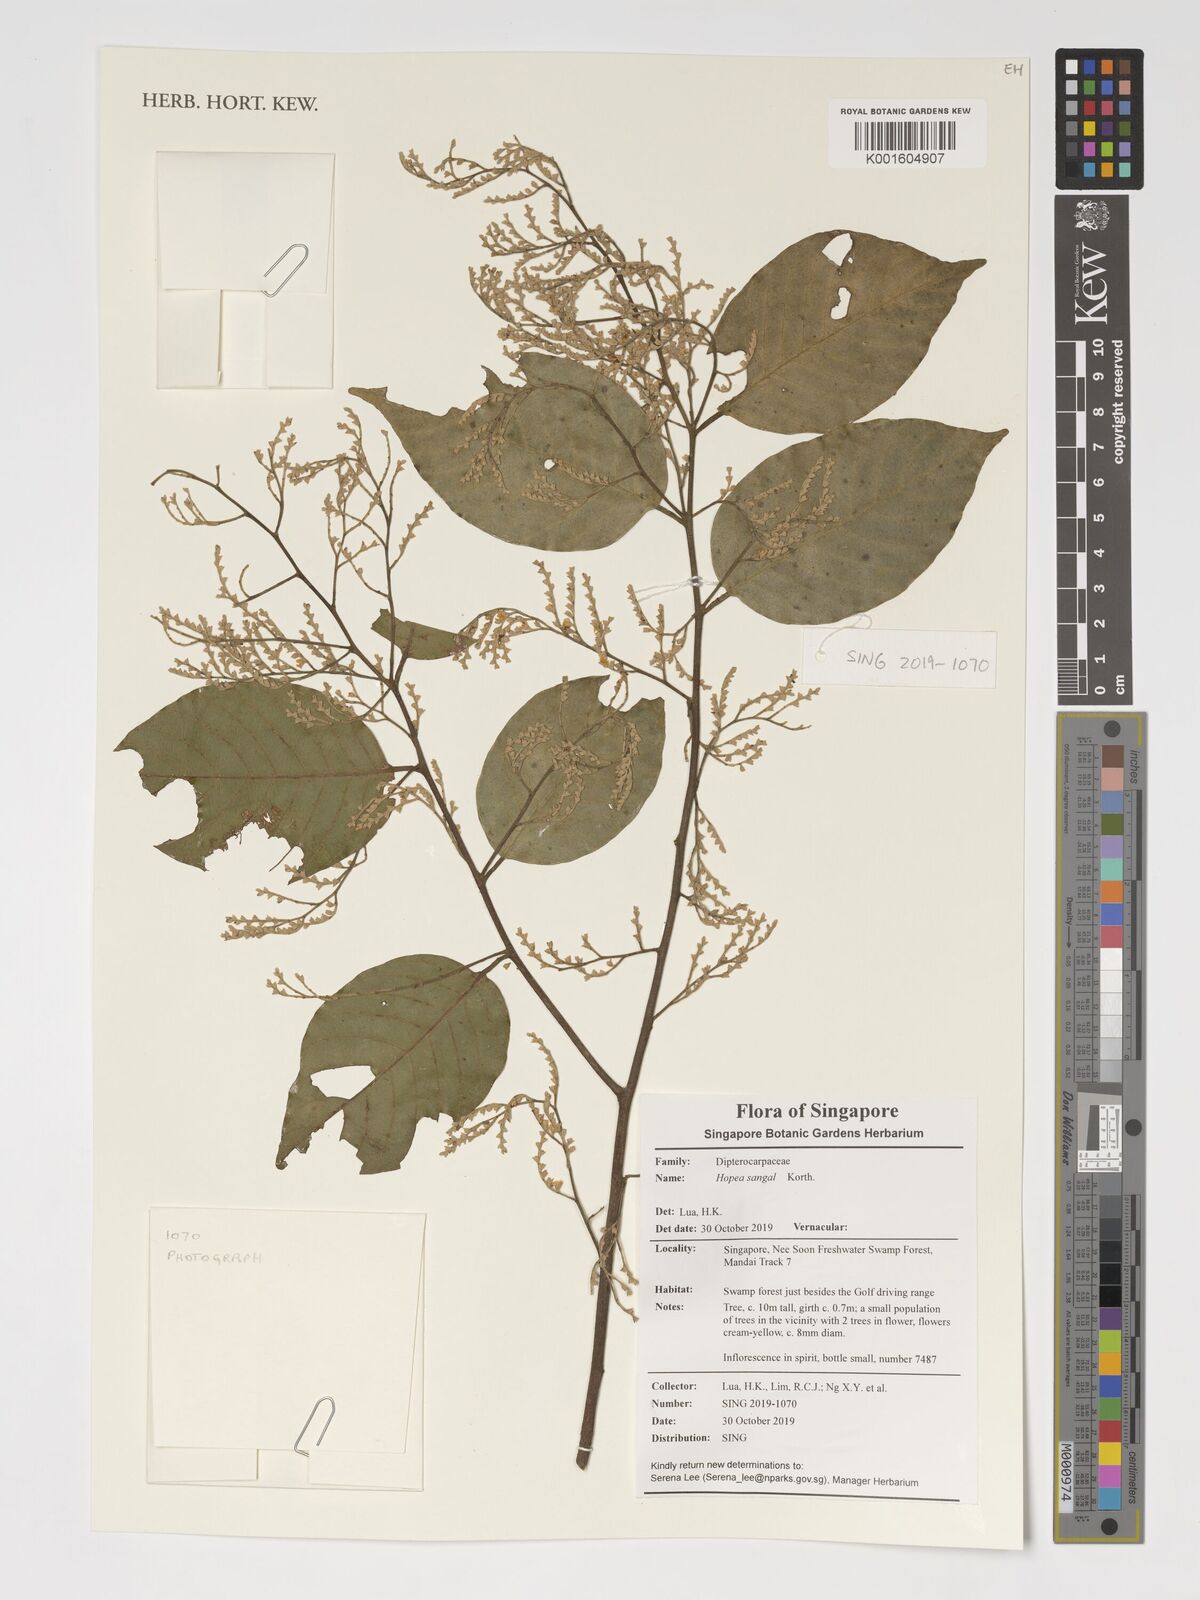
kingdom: Plantae
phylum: Tracheophyta
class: Magnoliopsida
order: Malvales
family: Dipterocarpaceae
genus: Hopea
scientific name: Hopea sangal
